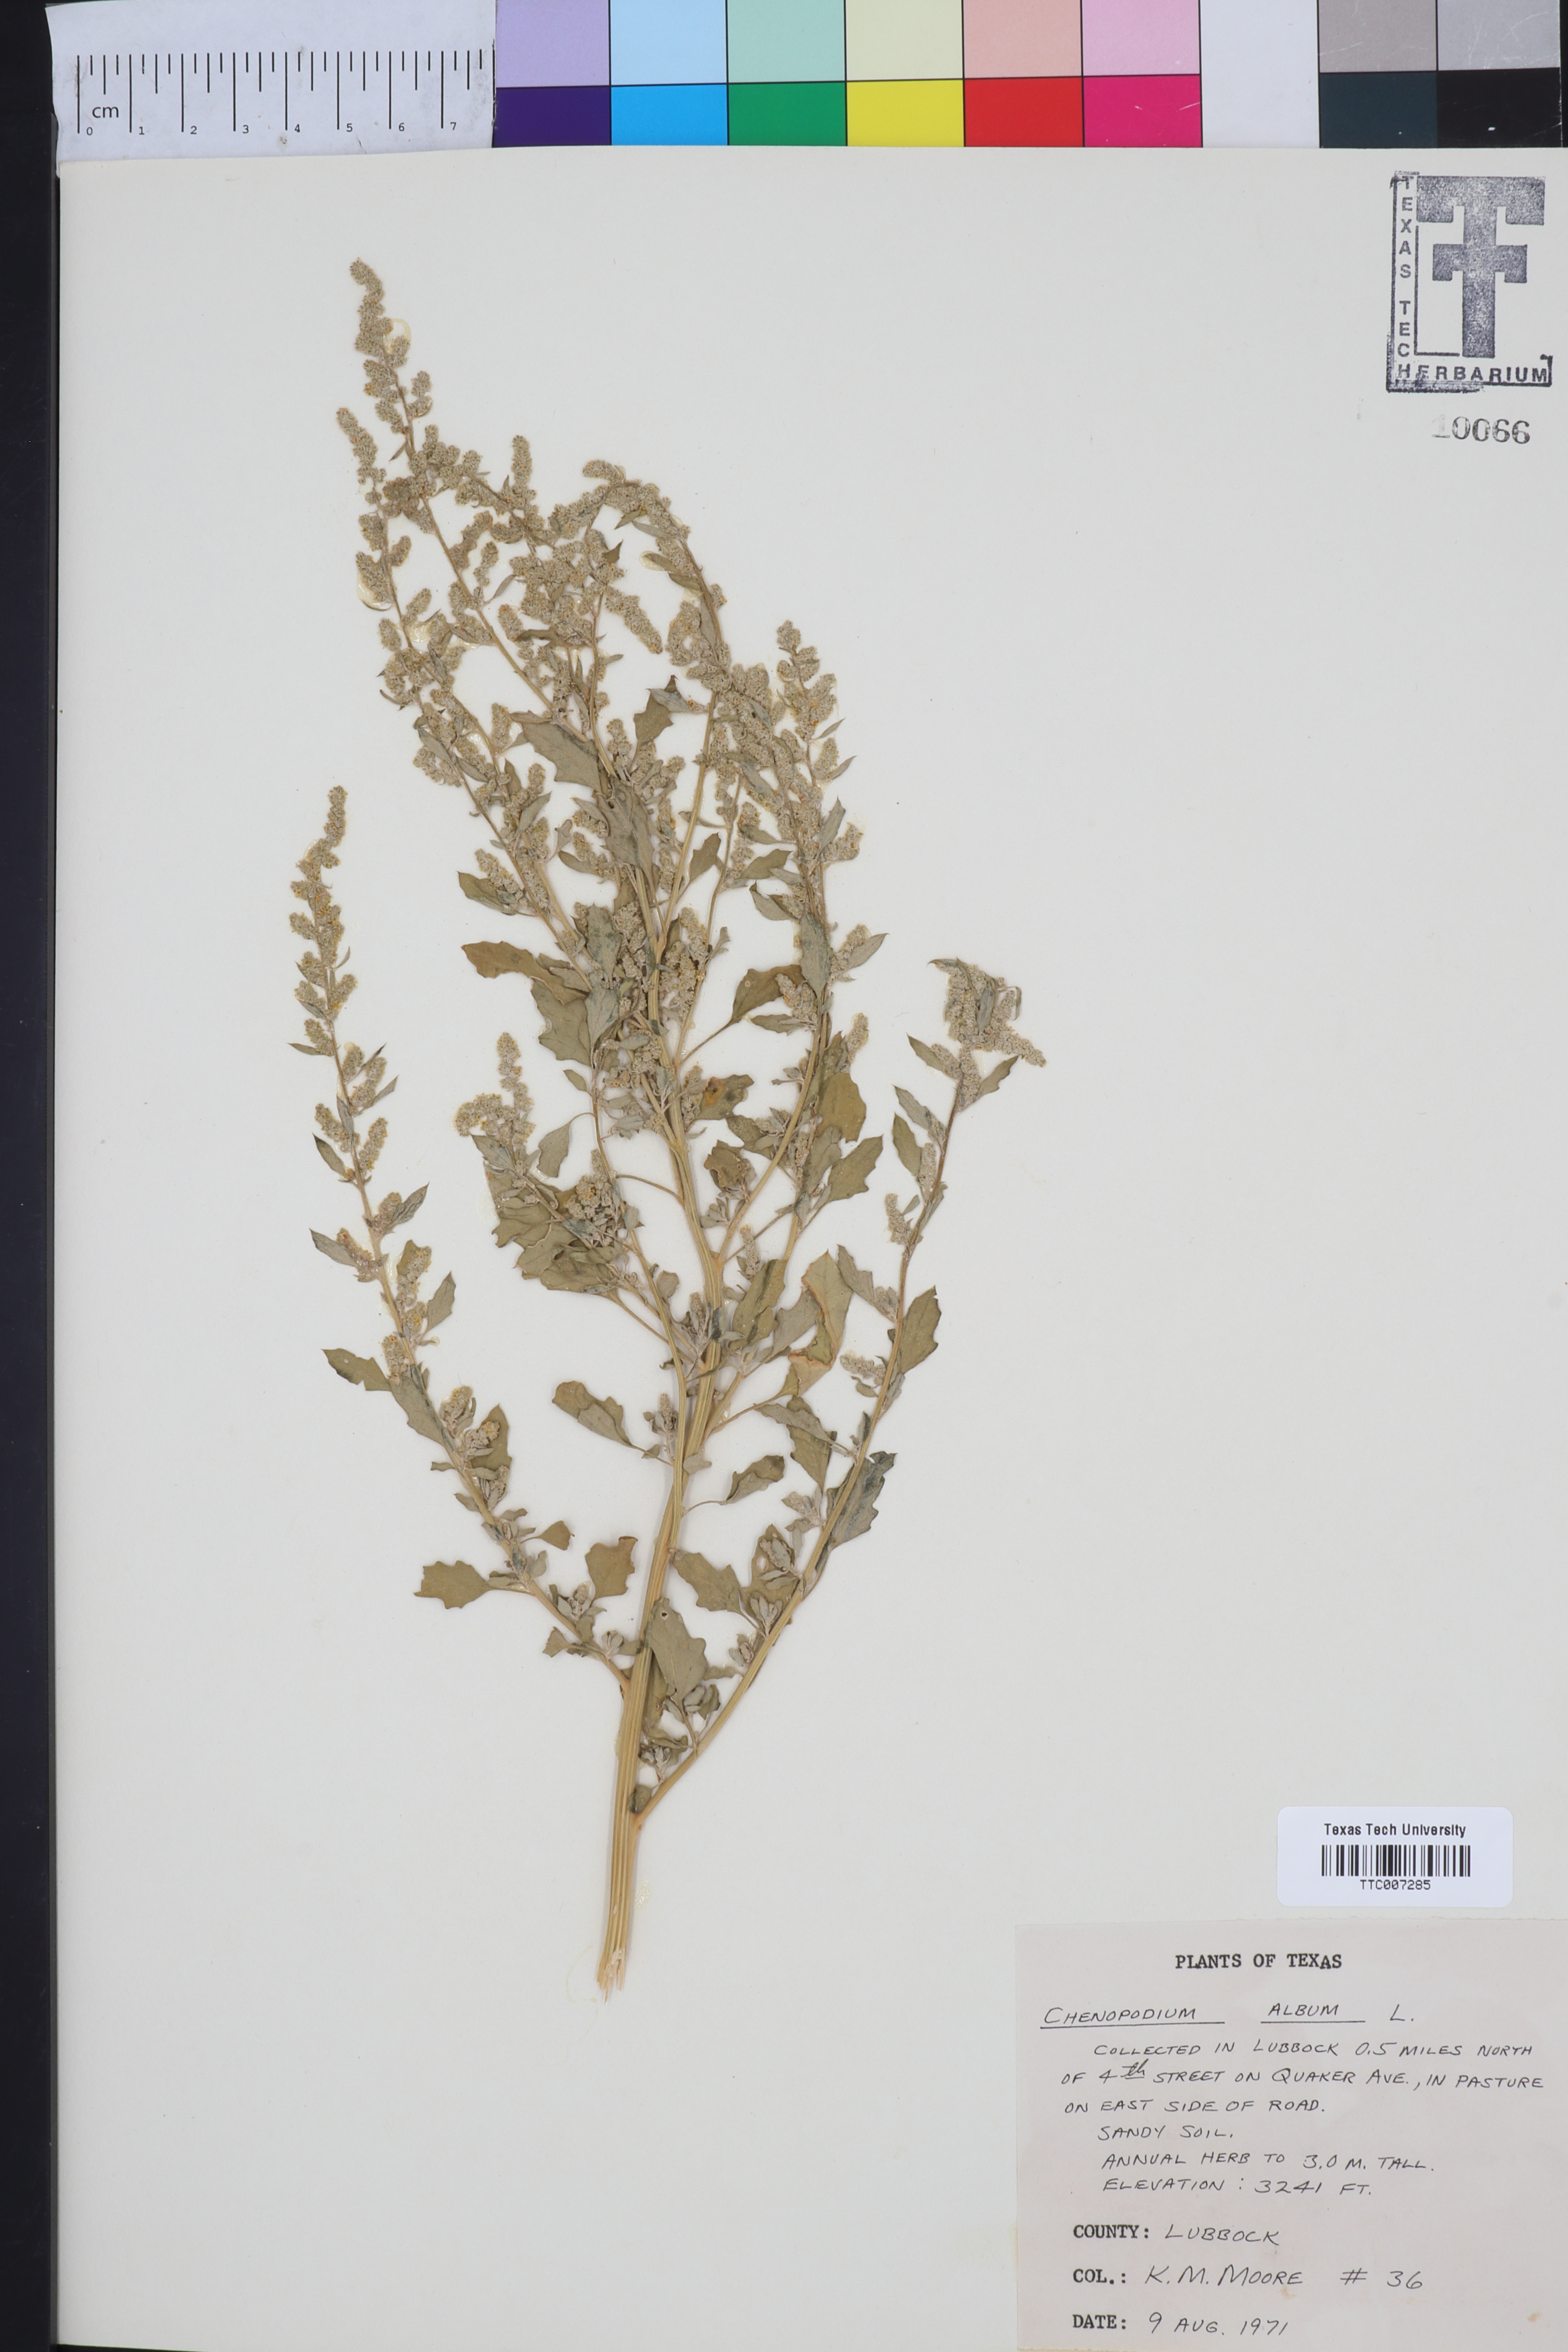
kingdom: Plantae
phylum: Tracheophyta
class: Magnoliopsida
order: Caryophyllales
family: Amaranthaceae
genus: Chenopodium
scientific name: Chenopodium album
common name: Fat-hen
